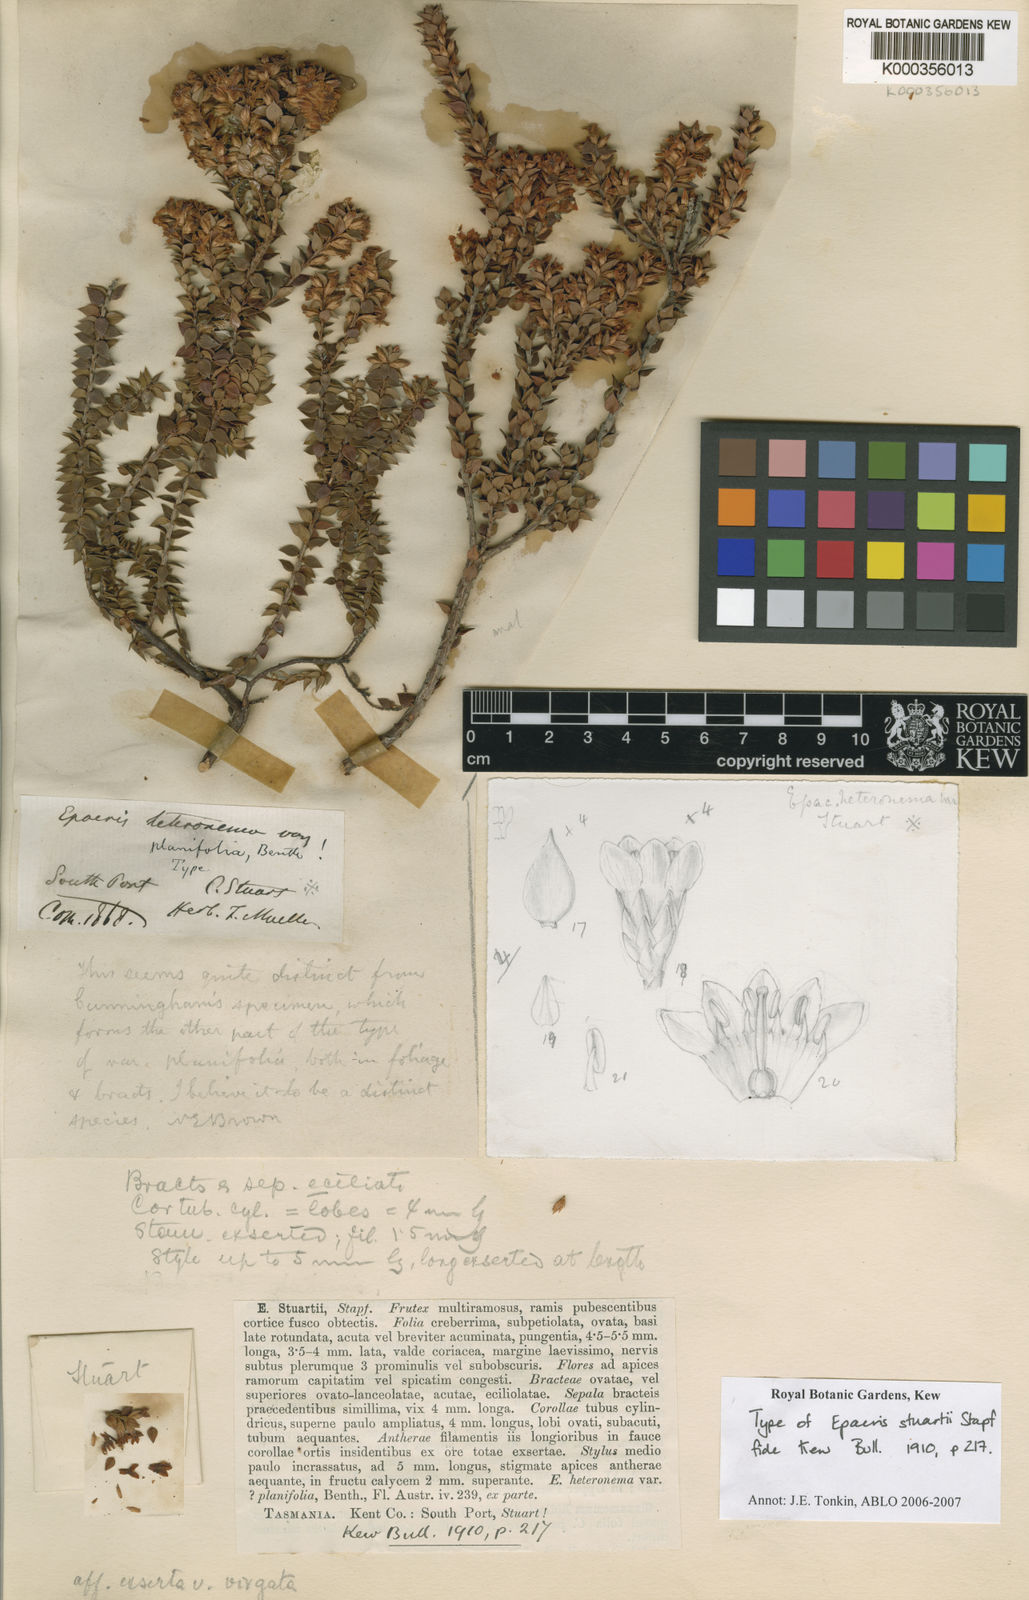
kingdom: Plantae
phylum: Tracheophyta
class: Magnoliopsida
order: Ericales
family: Ericaceae
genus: Epacris
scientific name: Epacris stuartii
